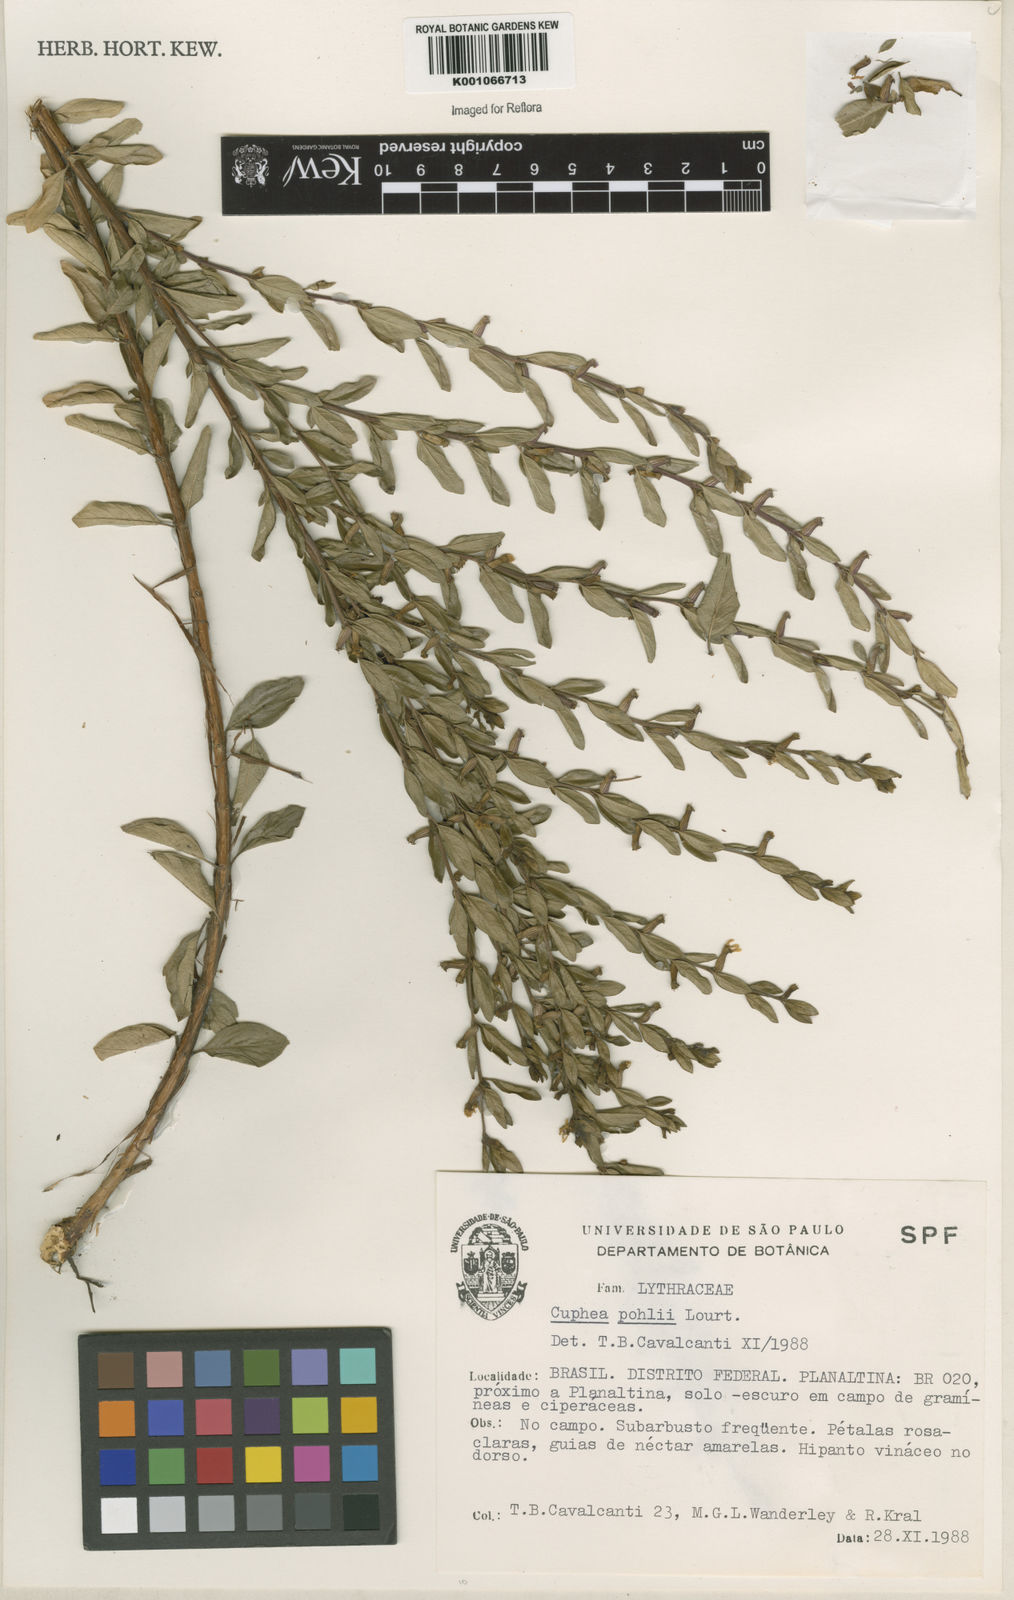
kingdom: Plantae
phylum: Tracheophyta
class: Magnoliopsida
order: Myrtales
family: Lythraceae
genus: Cuphea
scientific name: Cuphea pohlii
